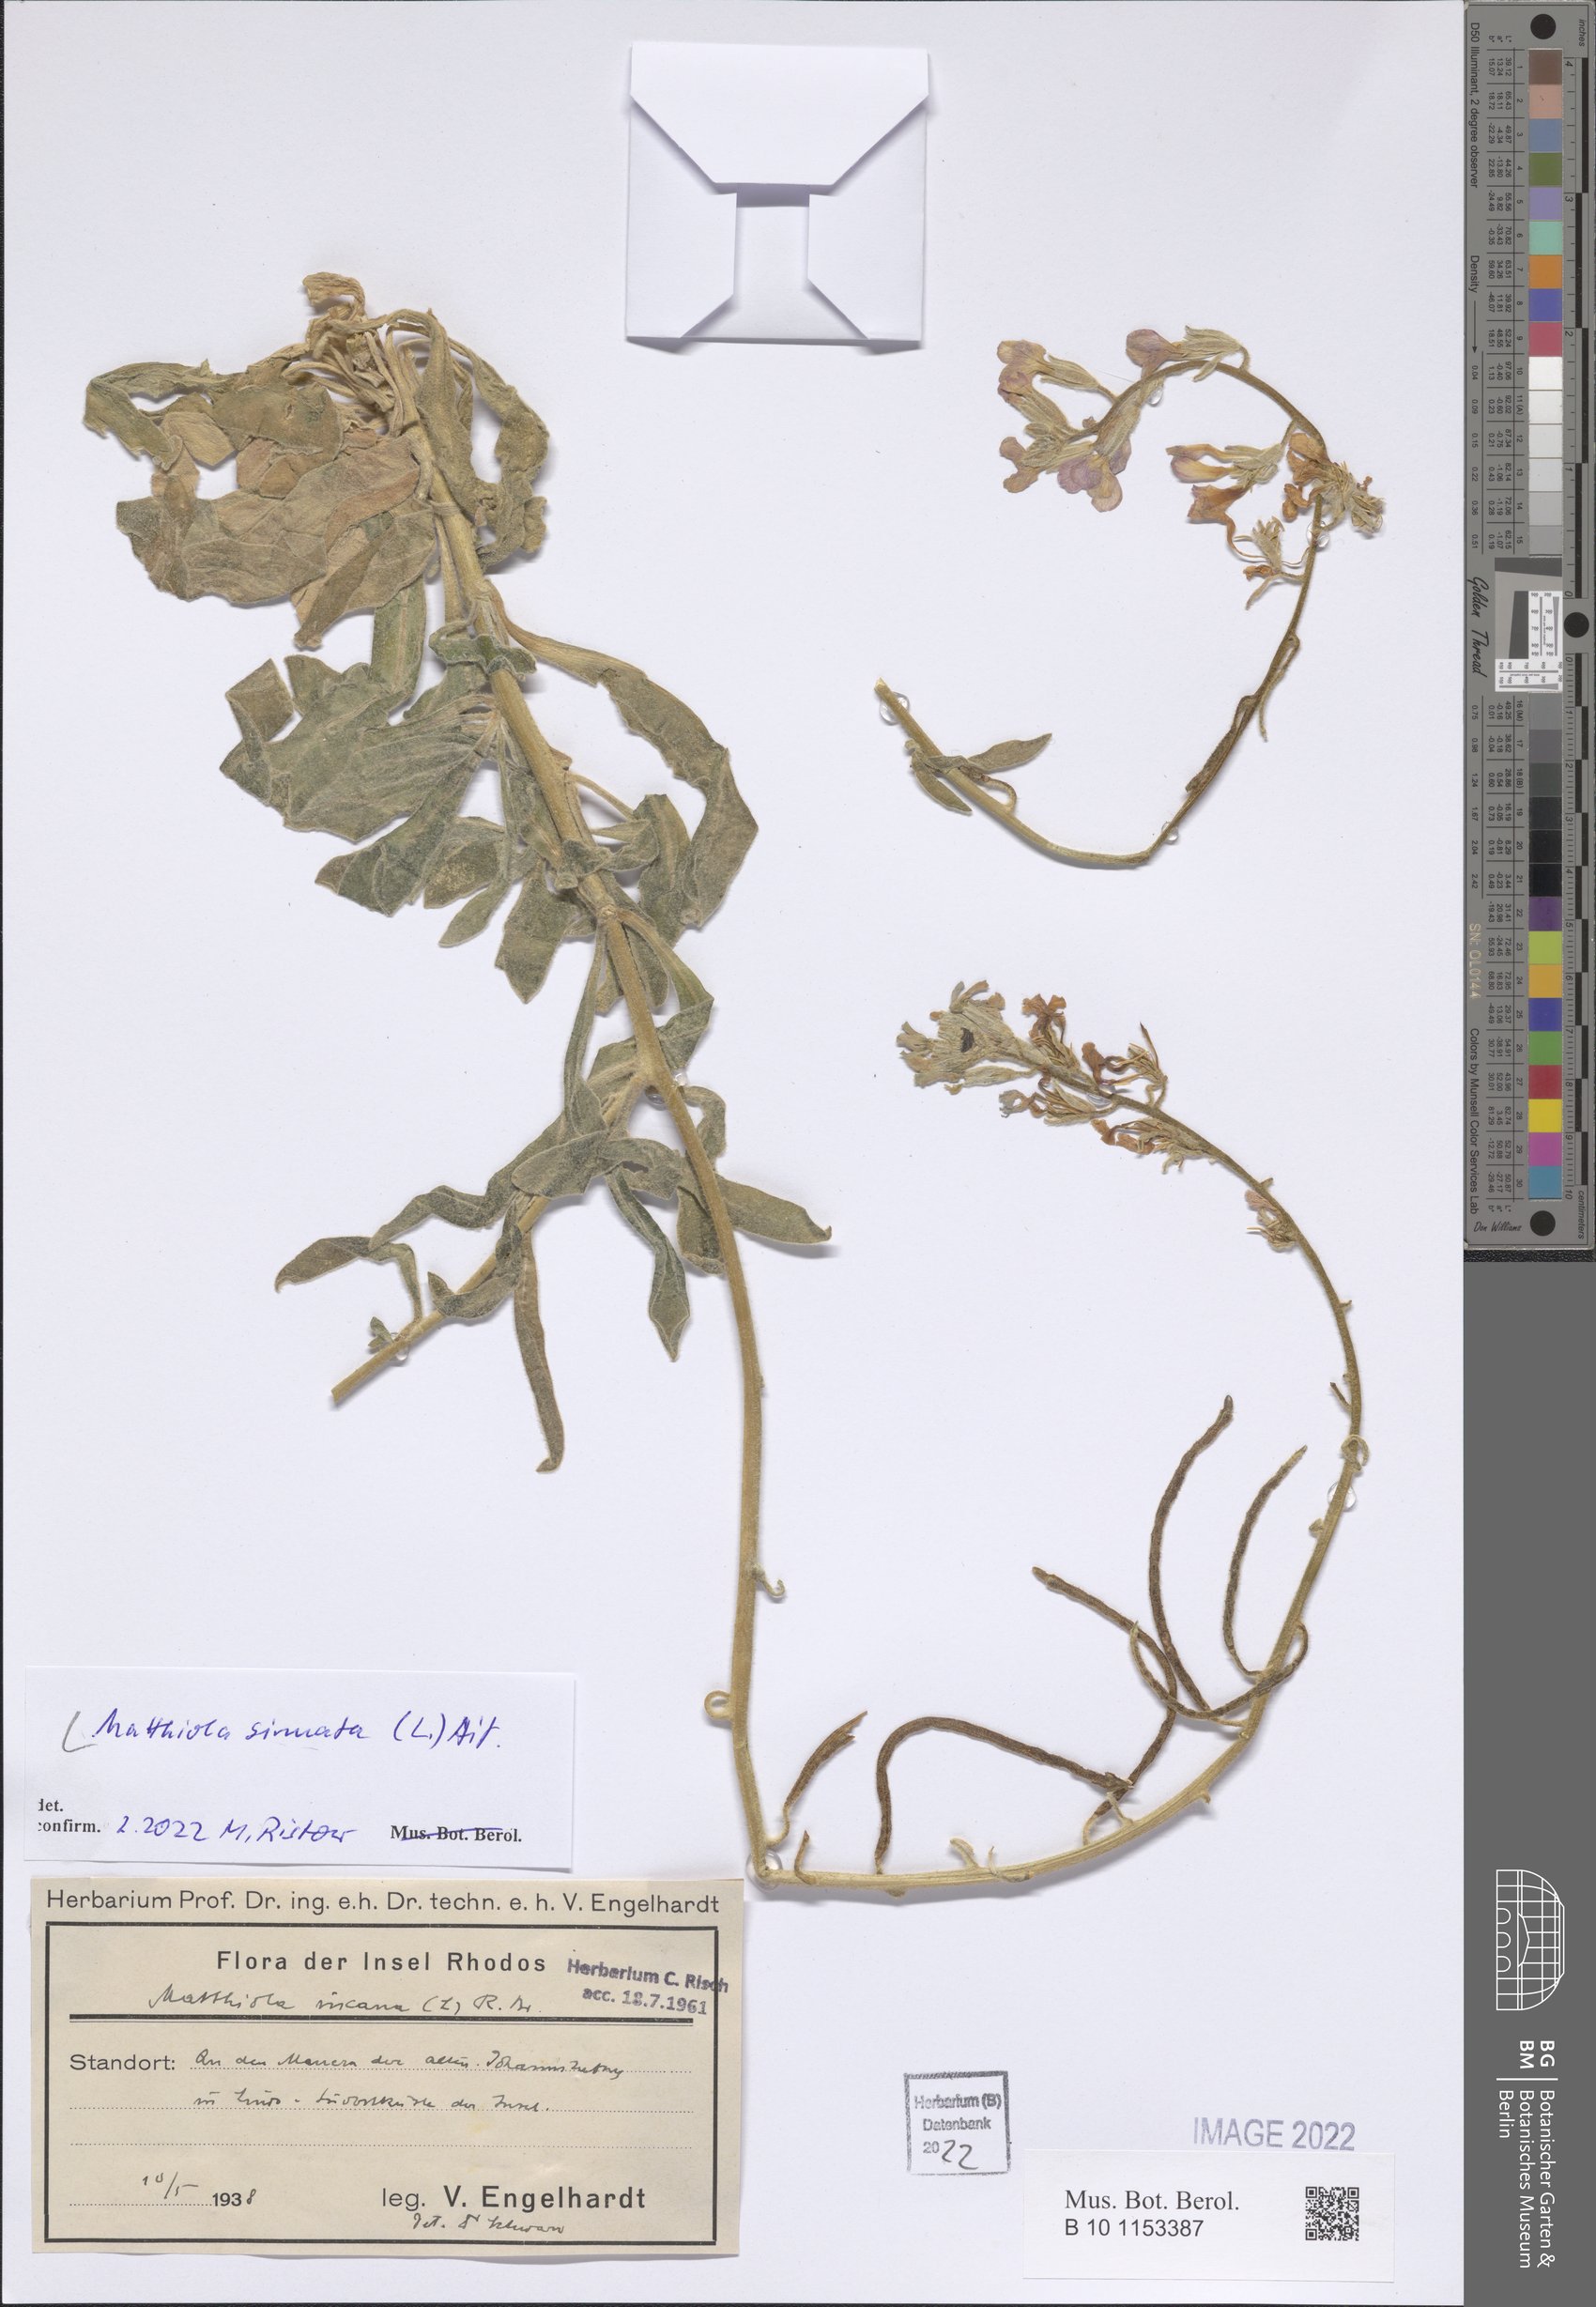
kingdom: Plantae
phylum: Tracheophyta
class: Magnoliopsida
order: Brassicales
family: Brassicaceae
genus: Matthiola
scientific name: Matthiola sinuata
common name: Sea stock
